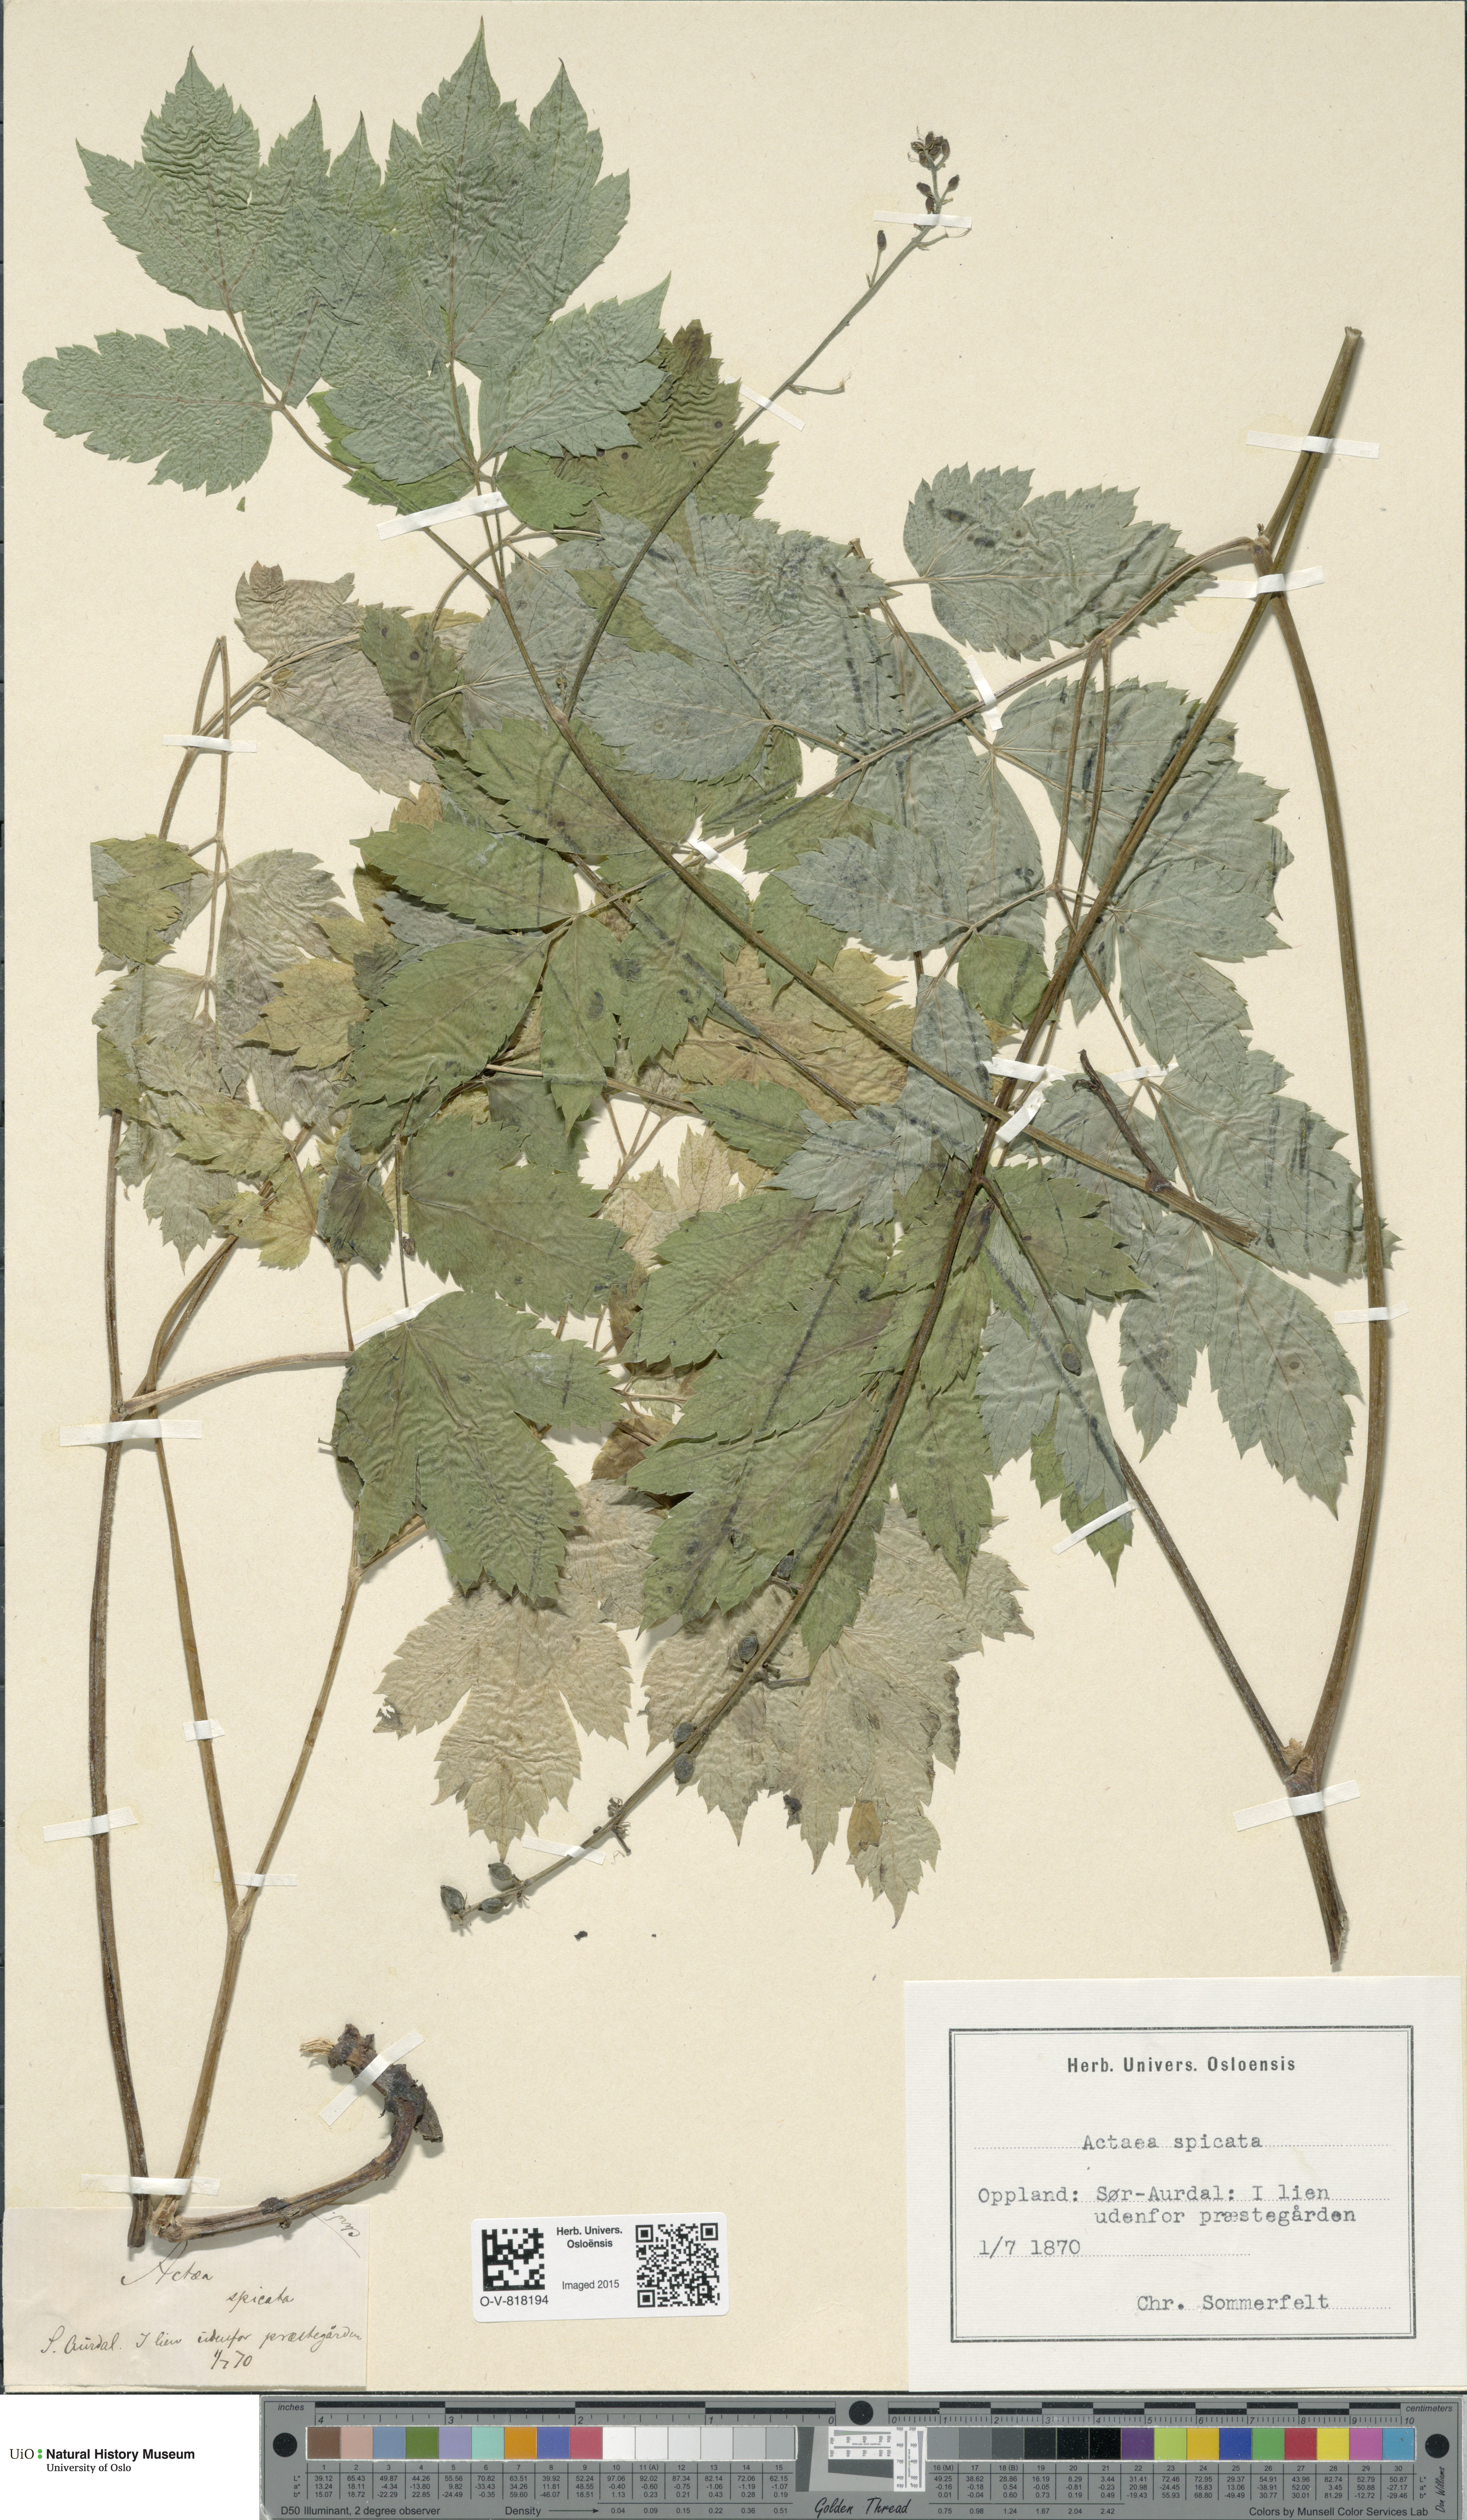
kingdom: Plantae
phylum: Tracheophyta
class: Magnoliopsida
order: Ranunculales
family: Ranunculaceae
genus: Actaea
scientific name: Actaea spicata
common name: Baneberry
